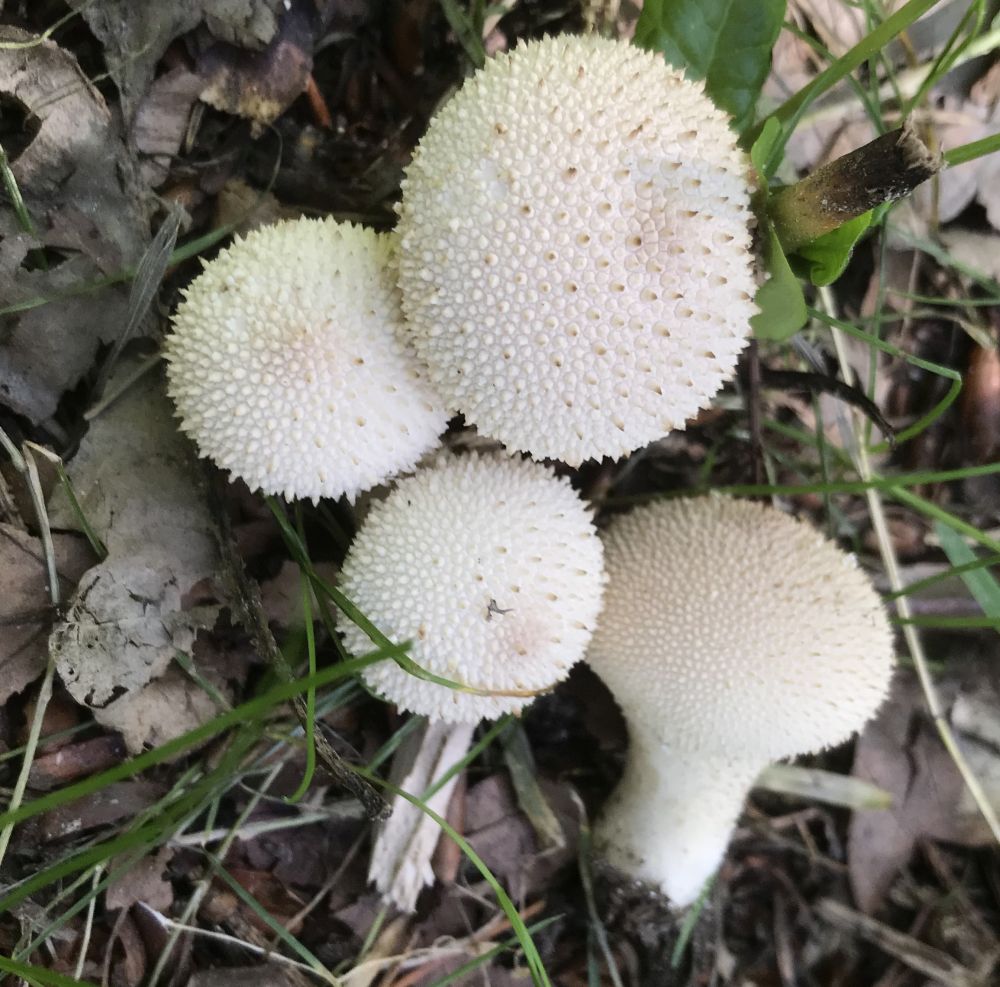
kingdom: Fungi
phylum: Basidiomycota
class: Agaricomycetes
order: Agaricales
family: Lycoperdaceae
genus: Lycoperdon
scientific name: Lycoperdon perlatum
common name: krystal-støvbold
